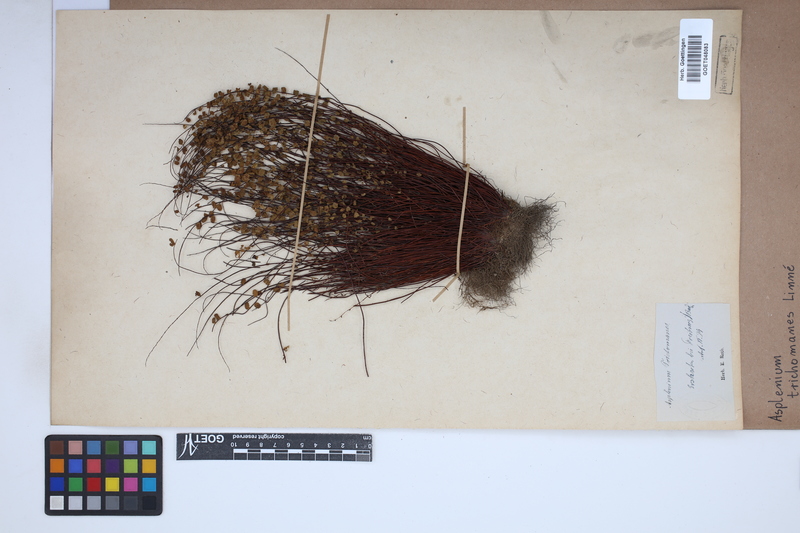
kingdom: Plantae
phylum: Tracheophyta
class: Polypodiopsida
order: Polypodiales
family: Aspleniaceae
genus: Asplenium
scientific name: Asplenium trichomanes
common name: Maidenhair spleenwort
